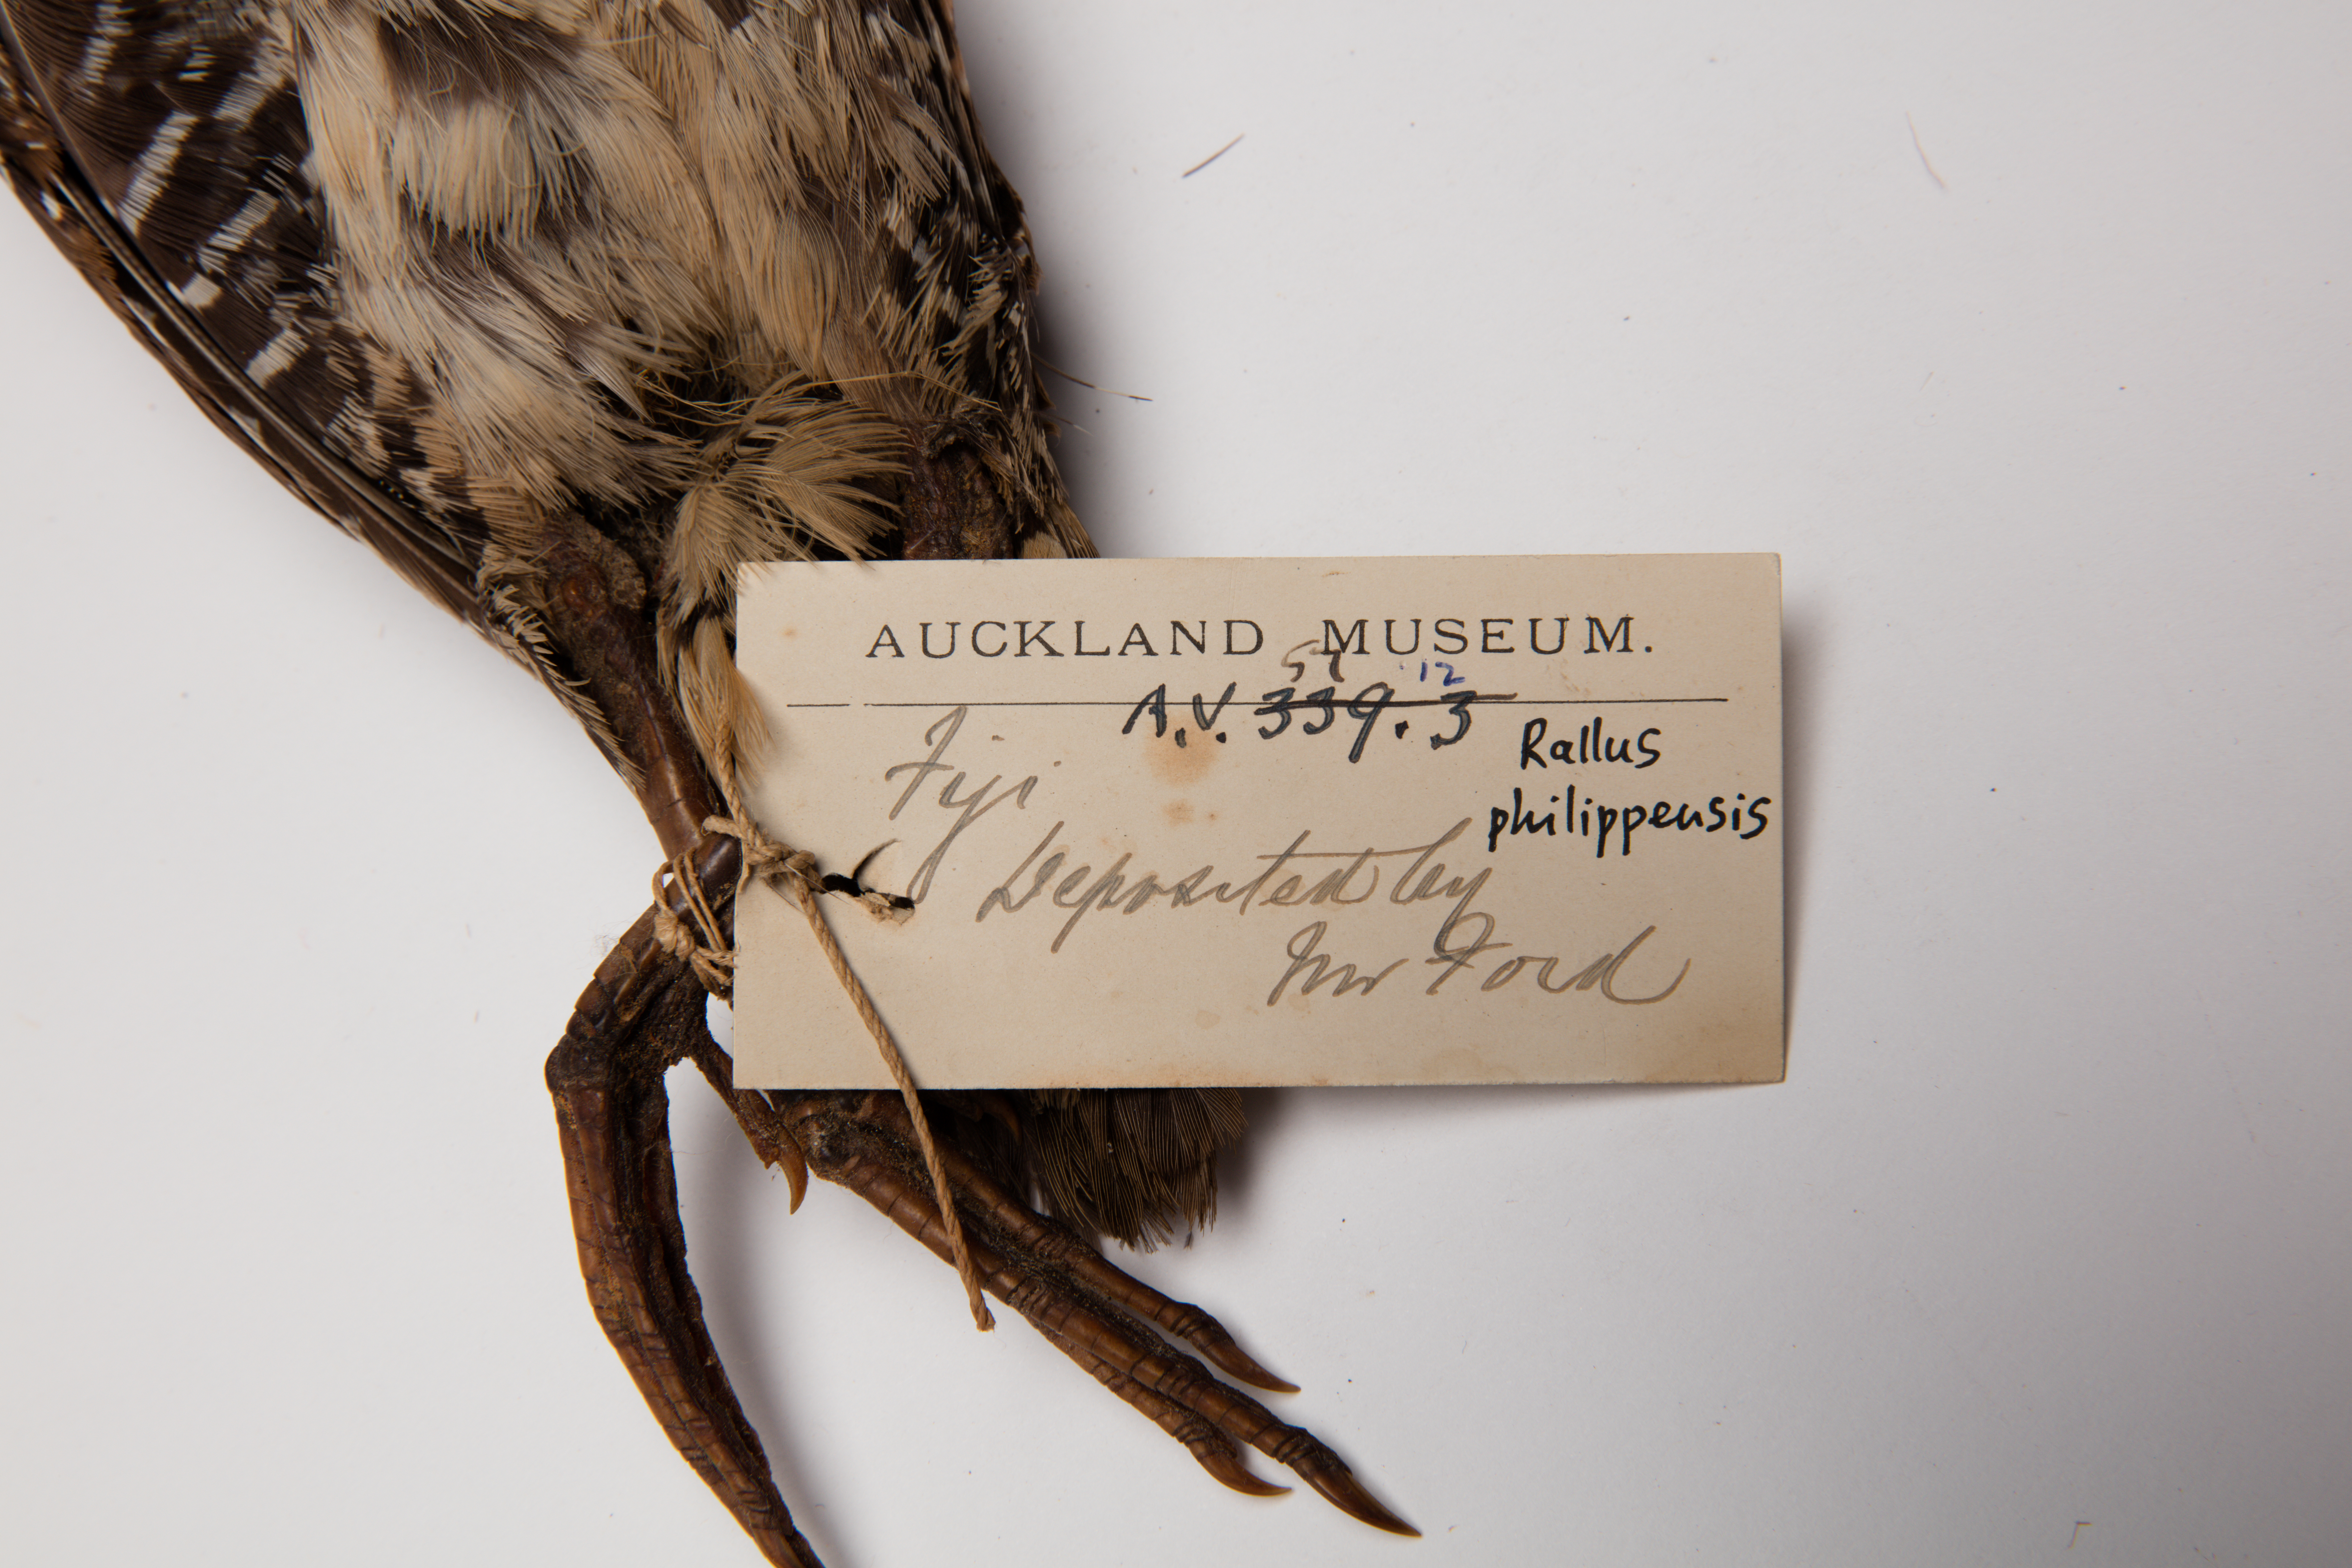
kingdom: Animalia
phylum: Chordata
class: Aves
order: Gruiformes
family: Rallidae
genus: Gallirallus
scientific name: Gallirallus philippensis
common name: Buff-banded rail
